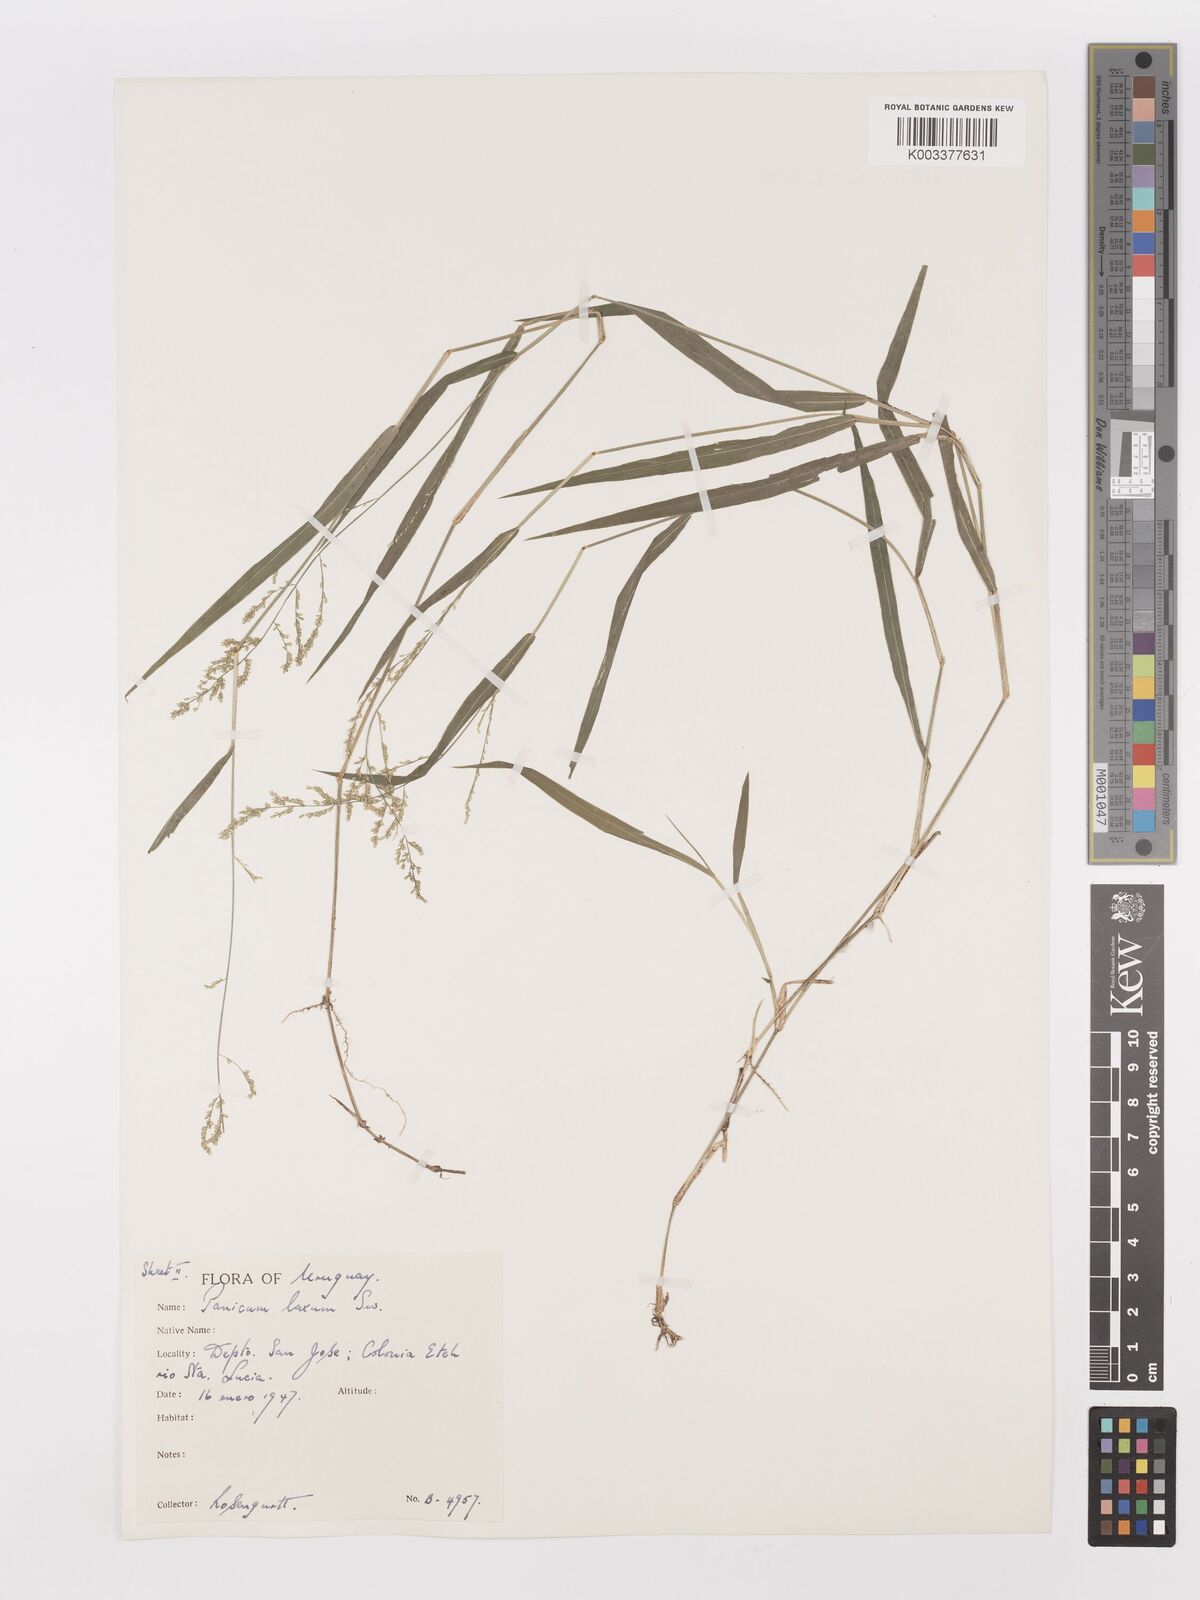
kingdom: Plantae
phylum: Tracheophyta
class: Liliopsida
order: Poales
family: Poaceae
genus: Steinchisma
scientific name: Steinchisma laxum
